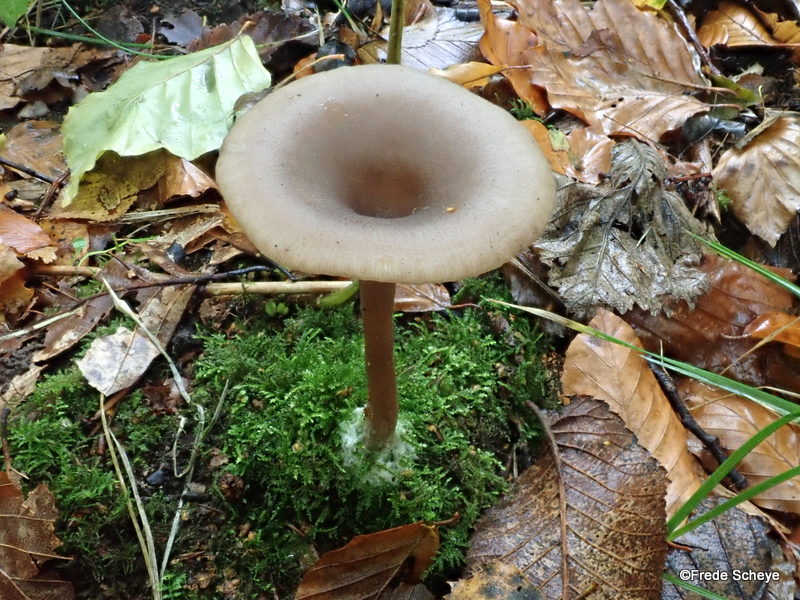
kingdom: Fungi
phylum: Basidiomycota
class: Agaricomycetes
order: Agaricales
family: Pseudoclitocybaceae
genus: Pseudoclitocybe
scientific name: Pseudoclitocybe cyathiformis
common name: almindelig bægertragthat
